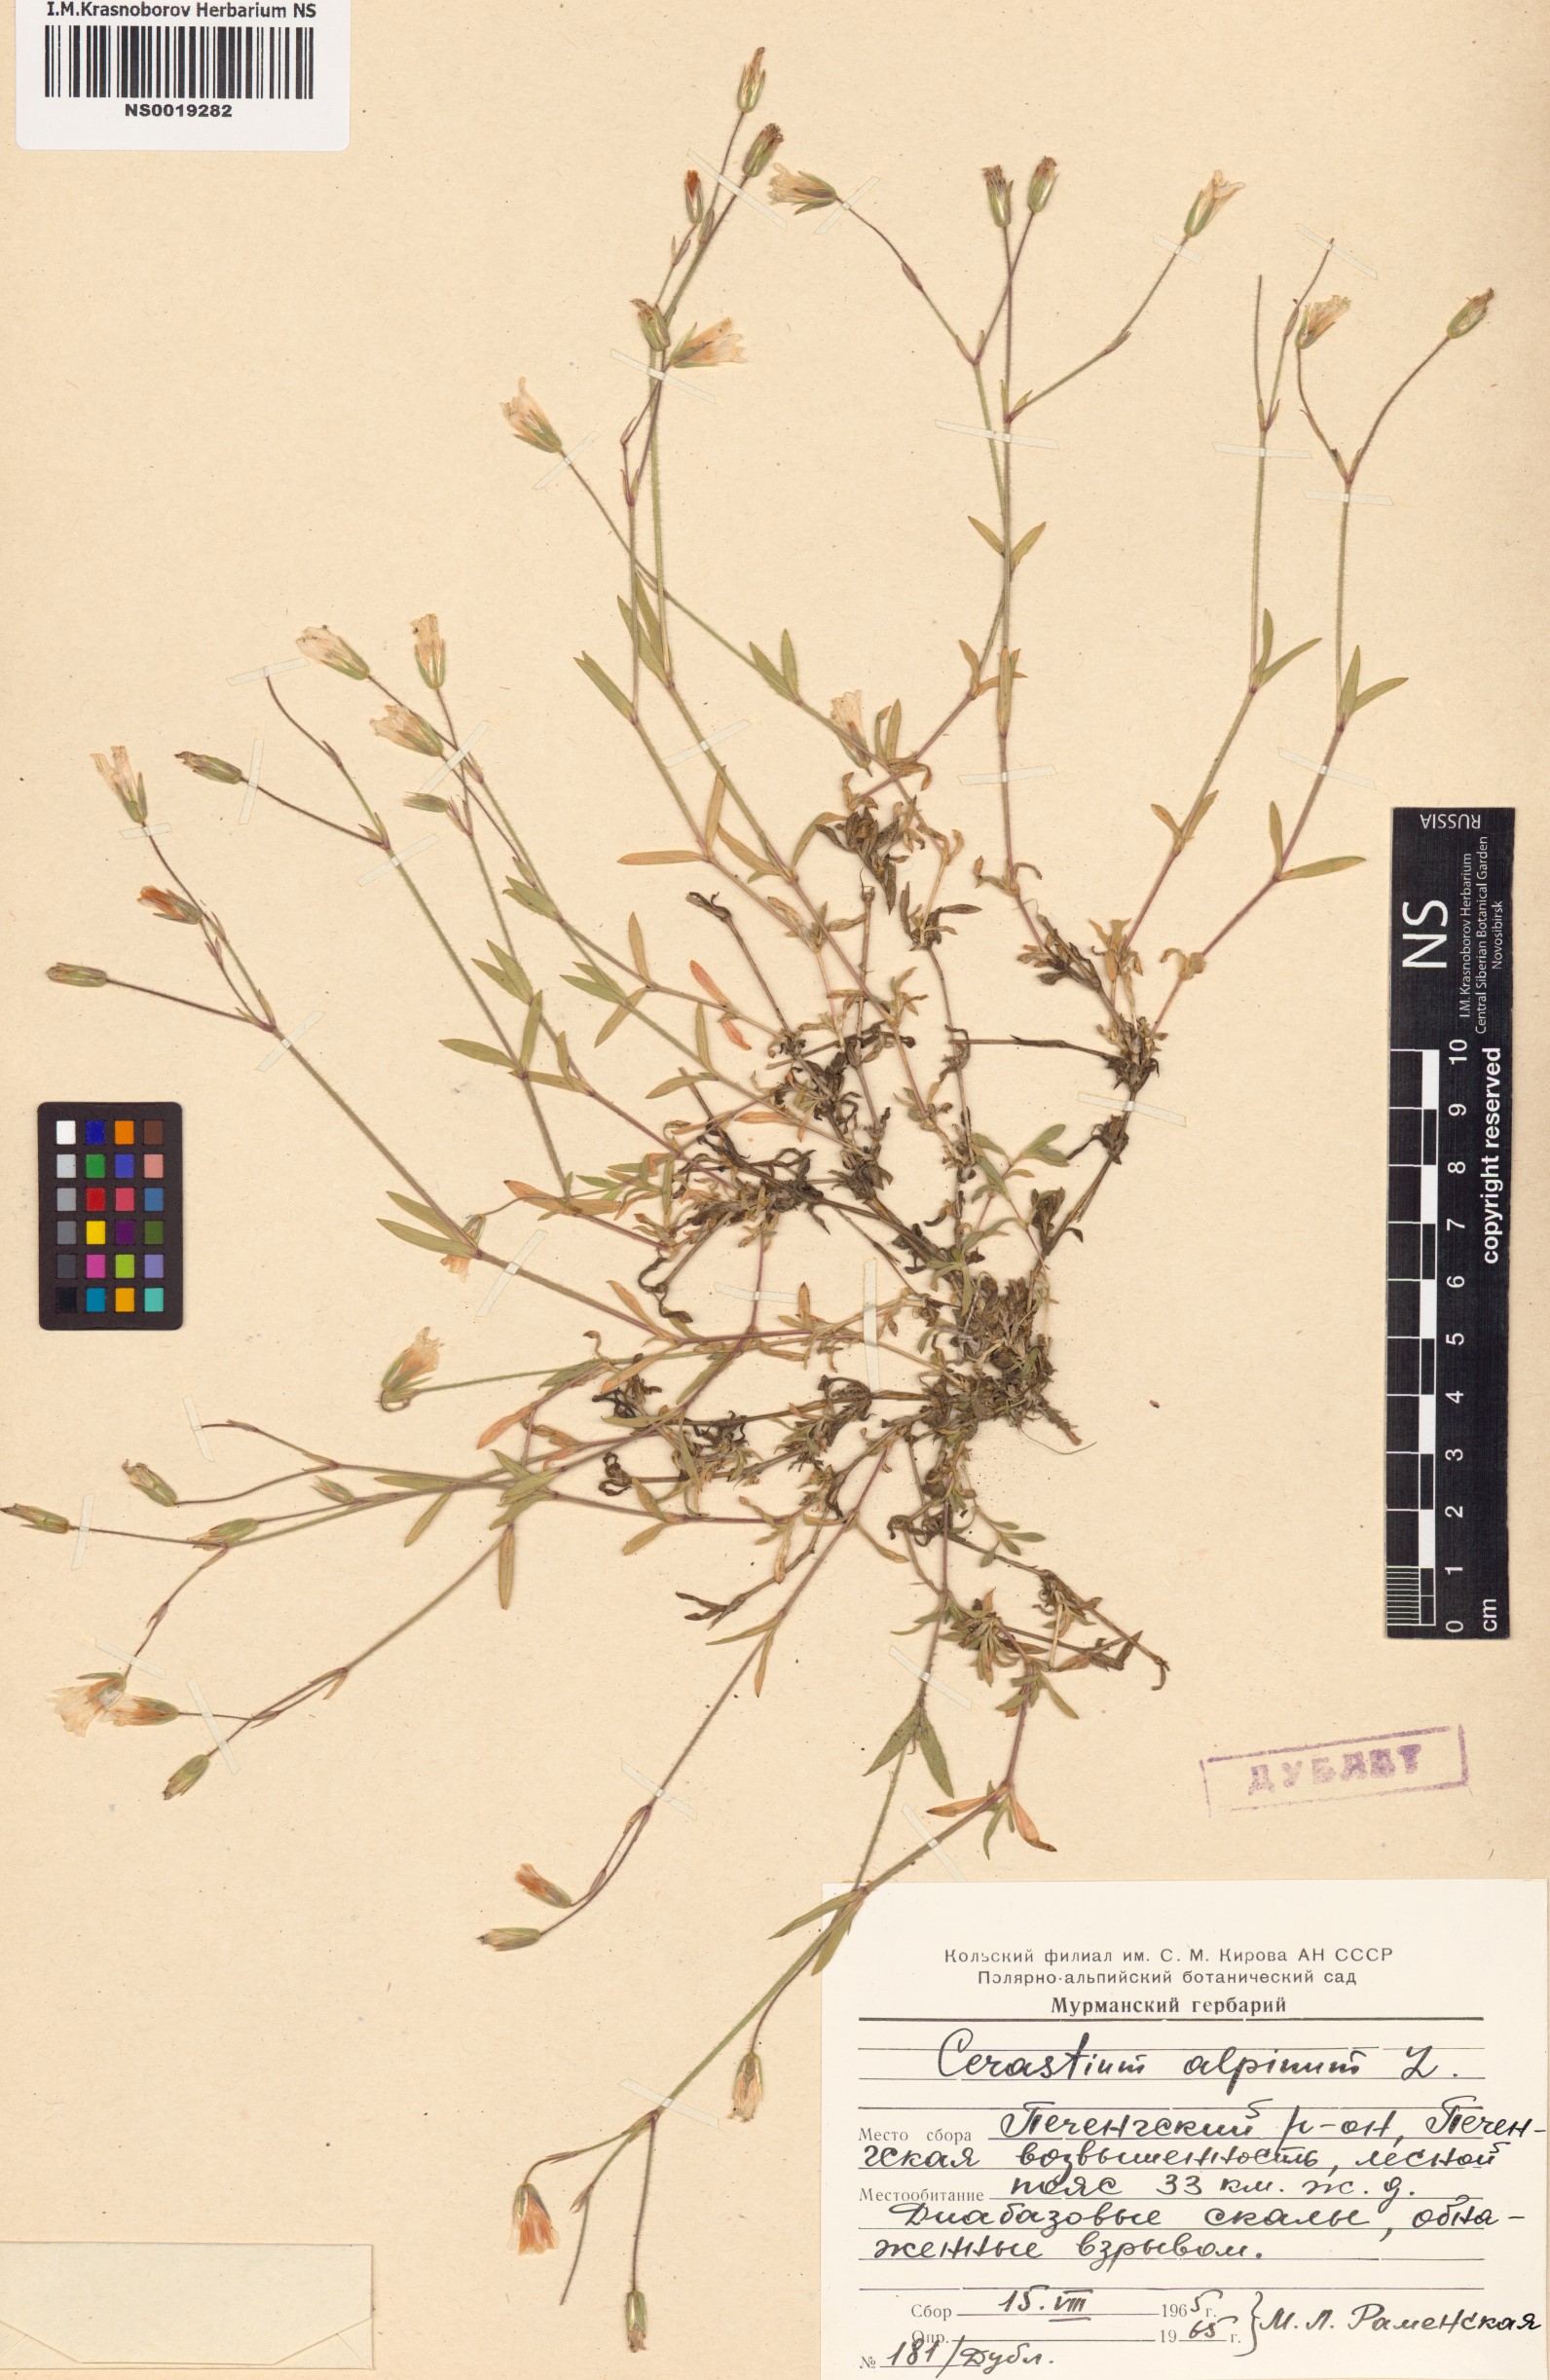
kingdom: Plantae
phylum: Tracheophyta
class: Magnoliopsida
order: Caryophyllales
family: Caryophyllaceae
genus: Cerastium
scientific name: Cerastium alpinum
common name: Alpine mouse-ear
